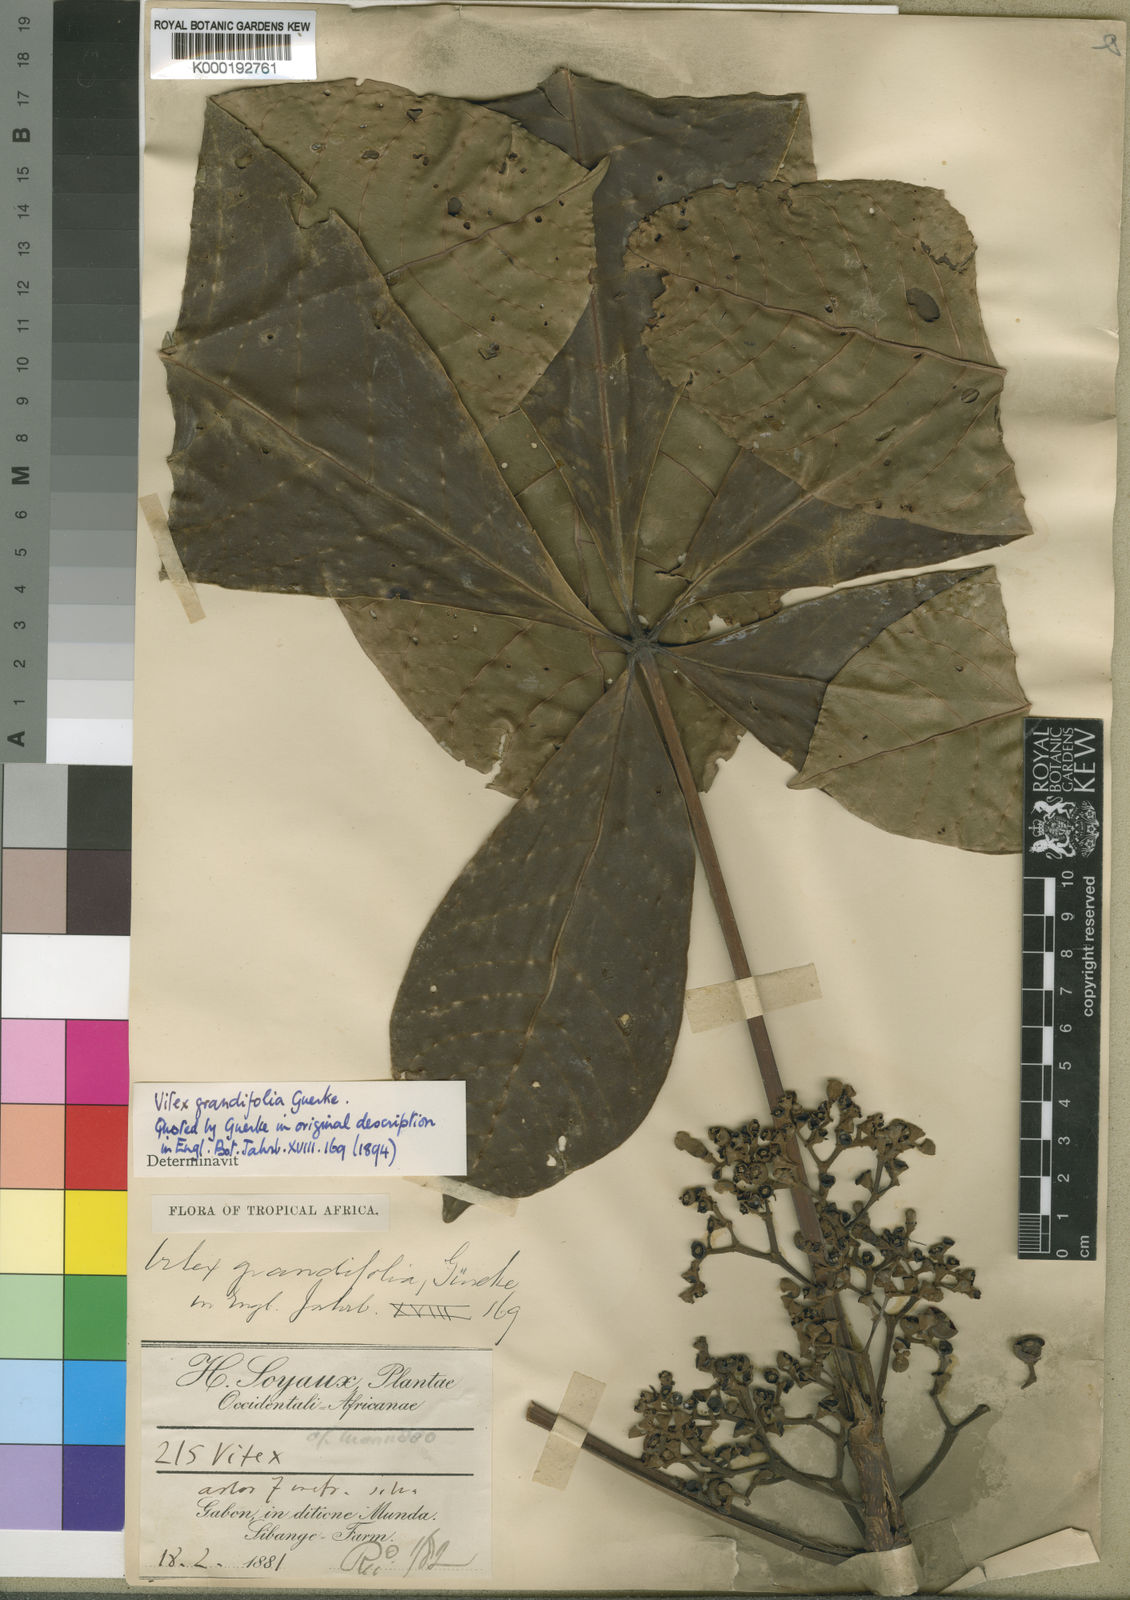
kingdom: Plantae
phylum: Tracheophyta
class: Magnoliopsida
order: Lamiales
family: Lamiaceae
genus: Vitex
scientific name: Vitex
